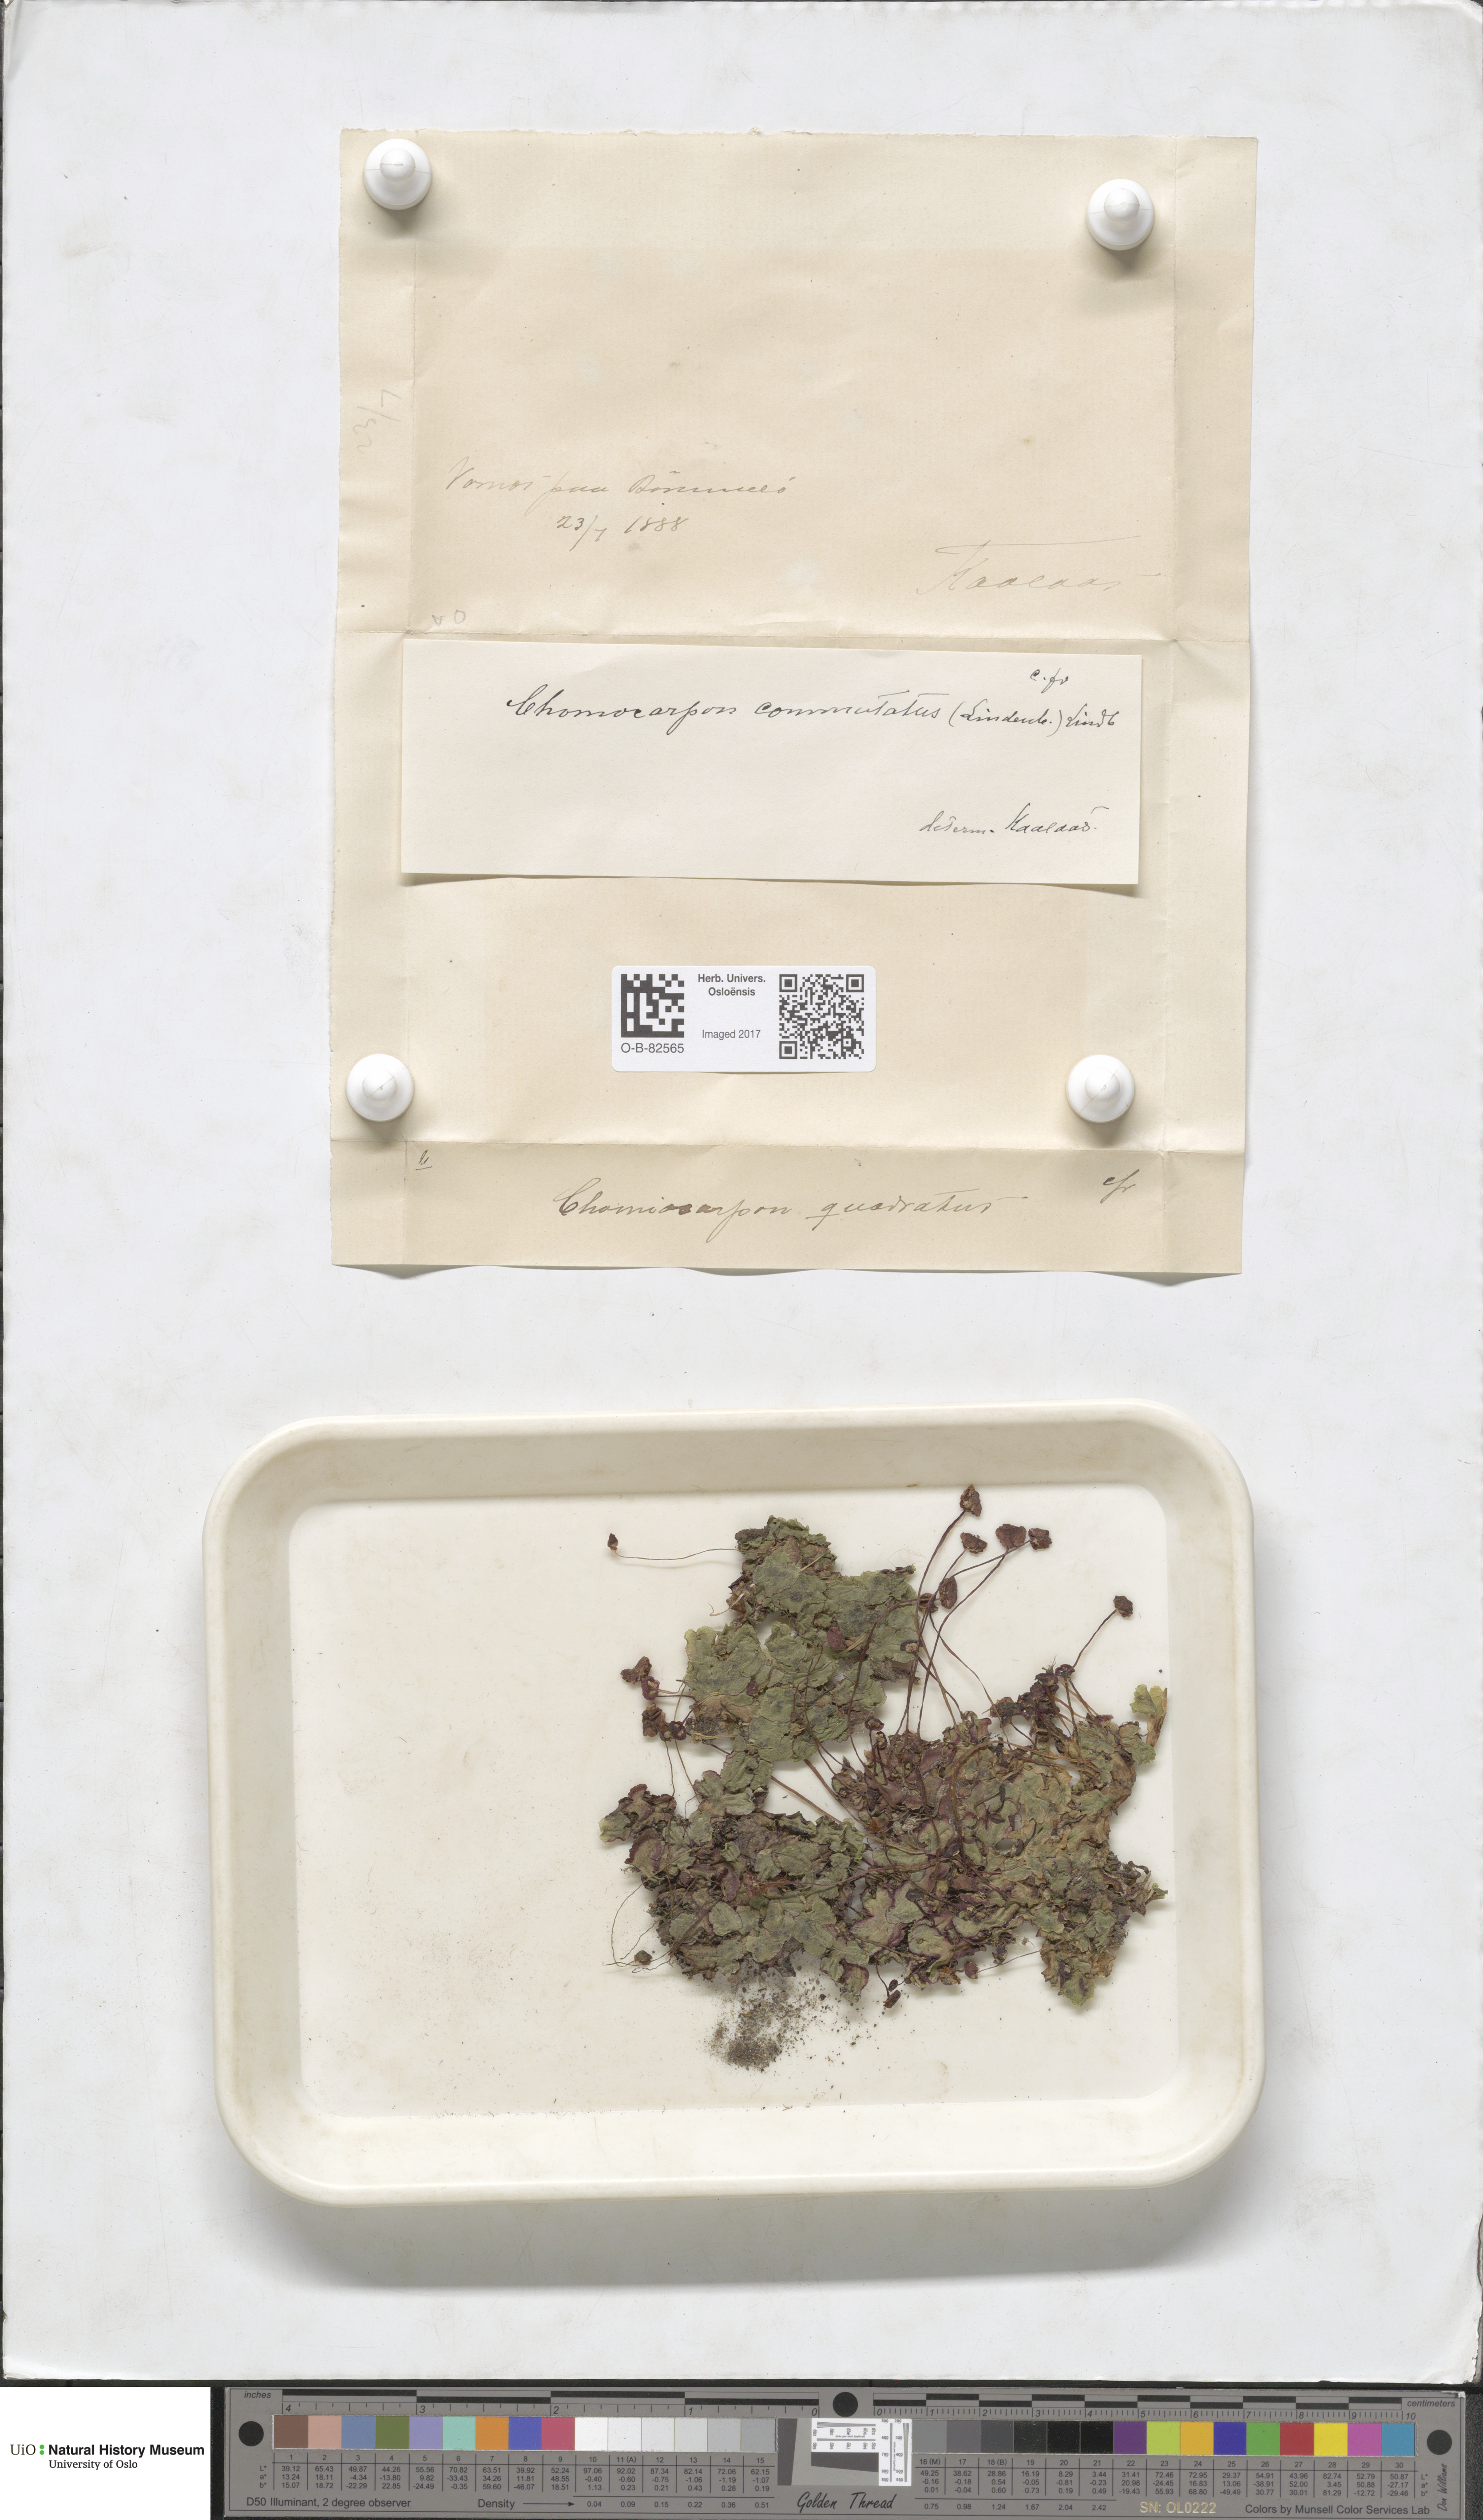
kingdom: Plantae
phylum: Marchantiophyta
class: Marchantiopsida
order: Marchantiales
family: Marchantiaceae
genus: Marchantia
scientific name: Marchantia quadrata
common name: Narrow mushroom-headed liverwort
